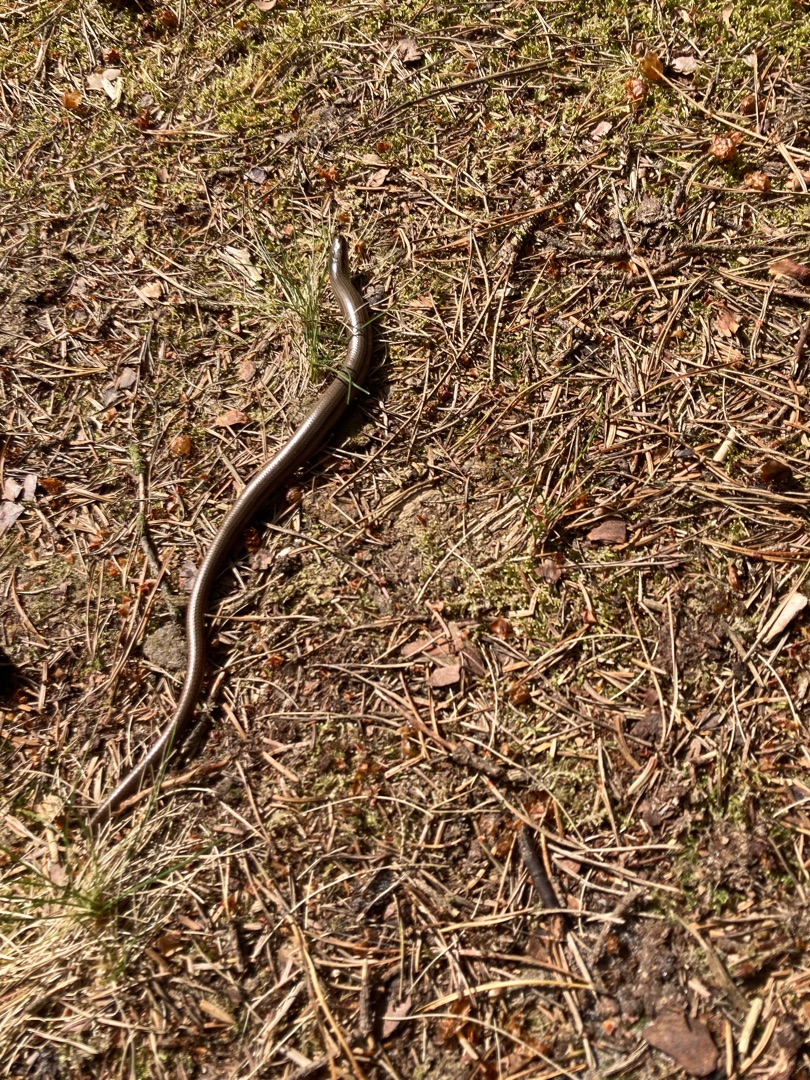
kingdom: Animalia
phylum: Chordata
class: Squamata
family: Anguidae
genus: Anguis
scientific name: Anguis fragilis
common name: Stålorm
